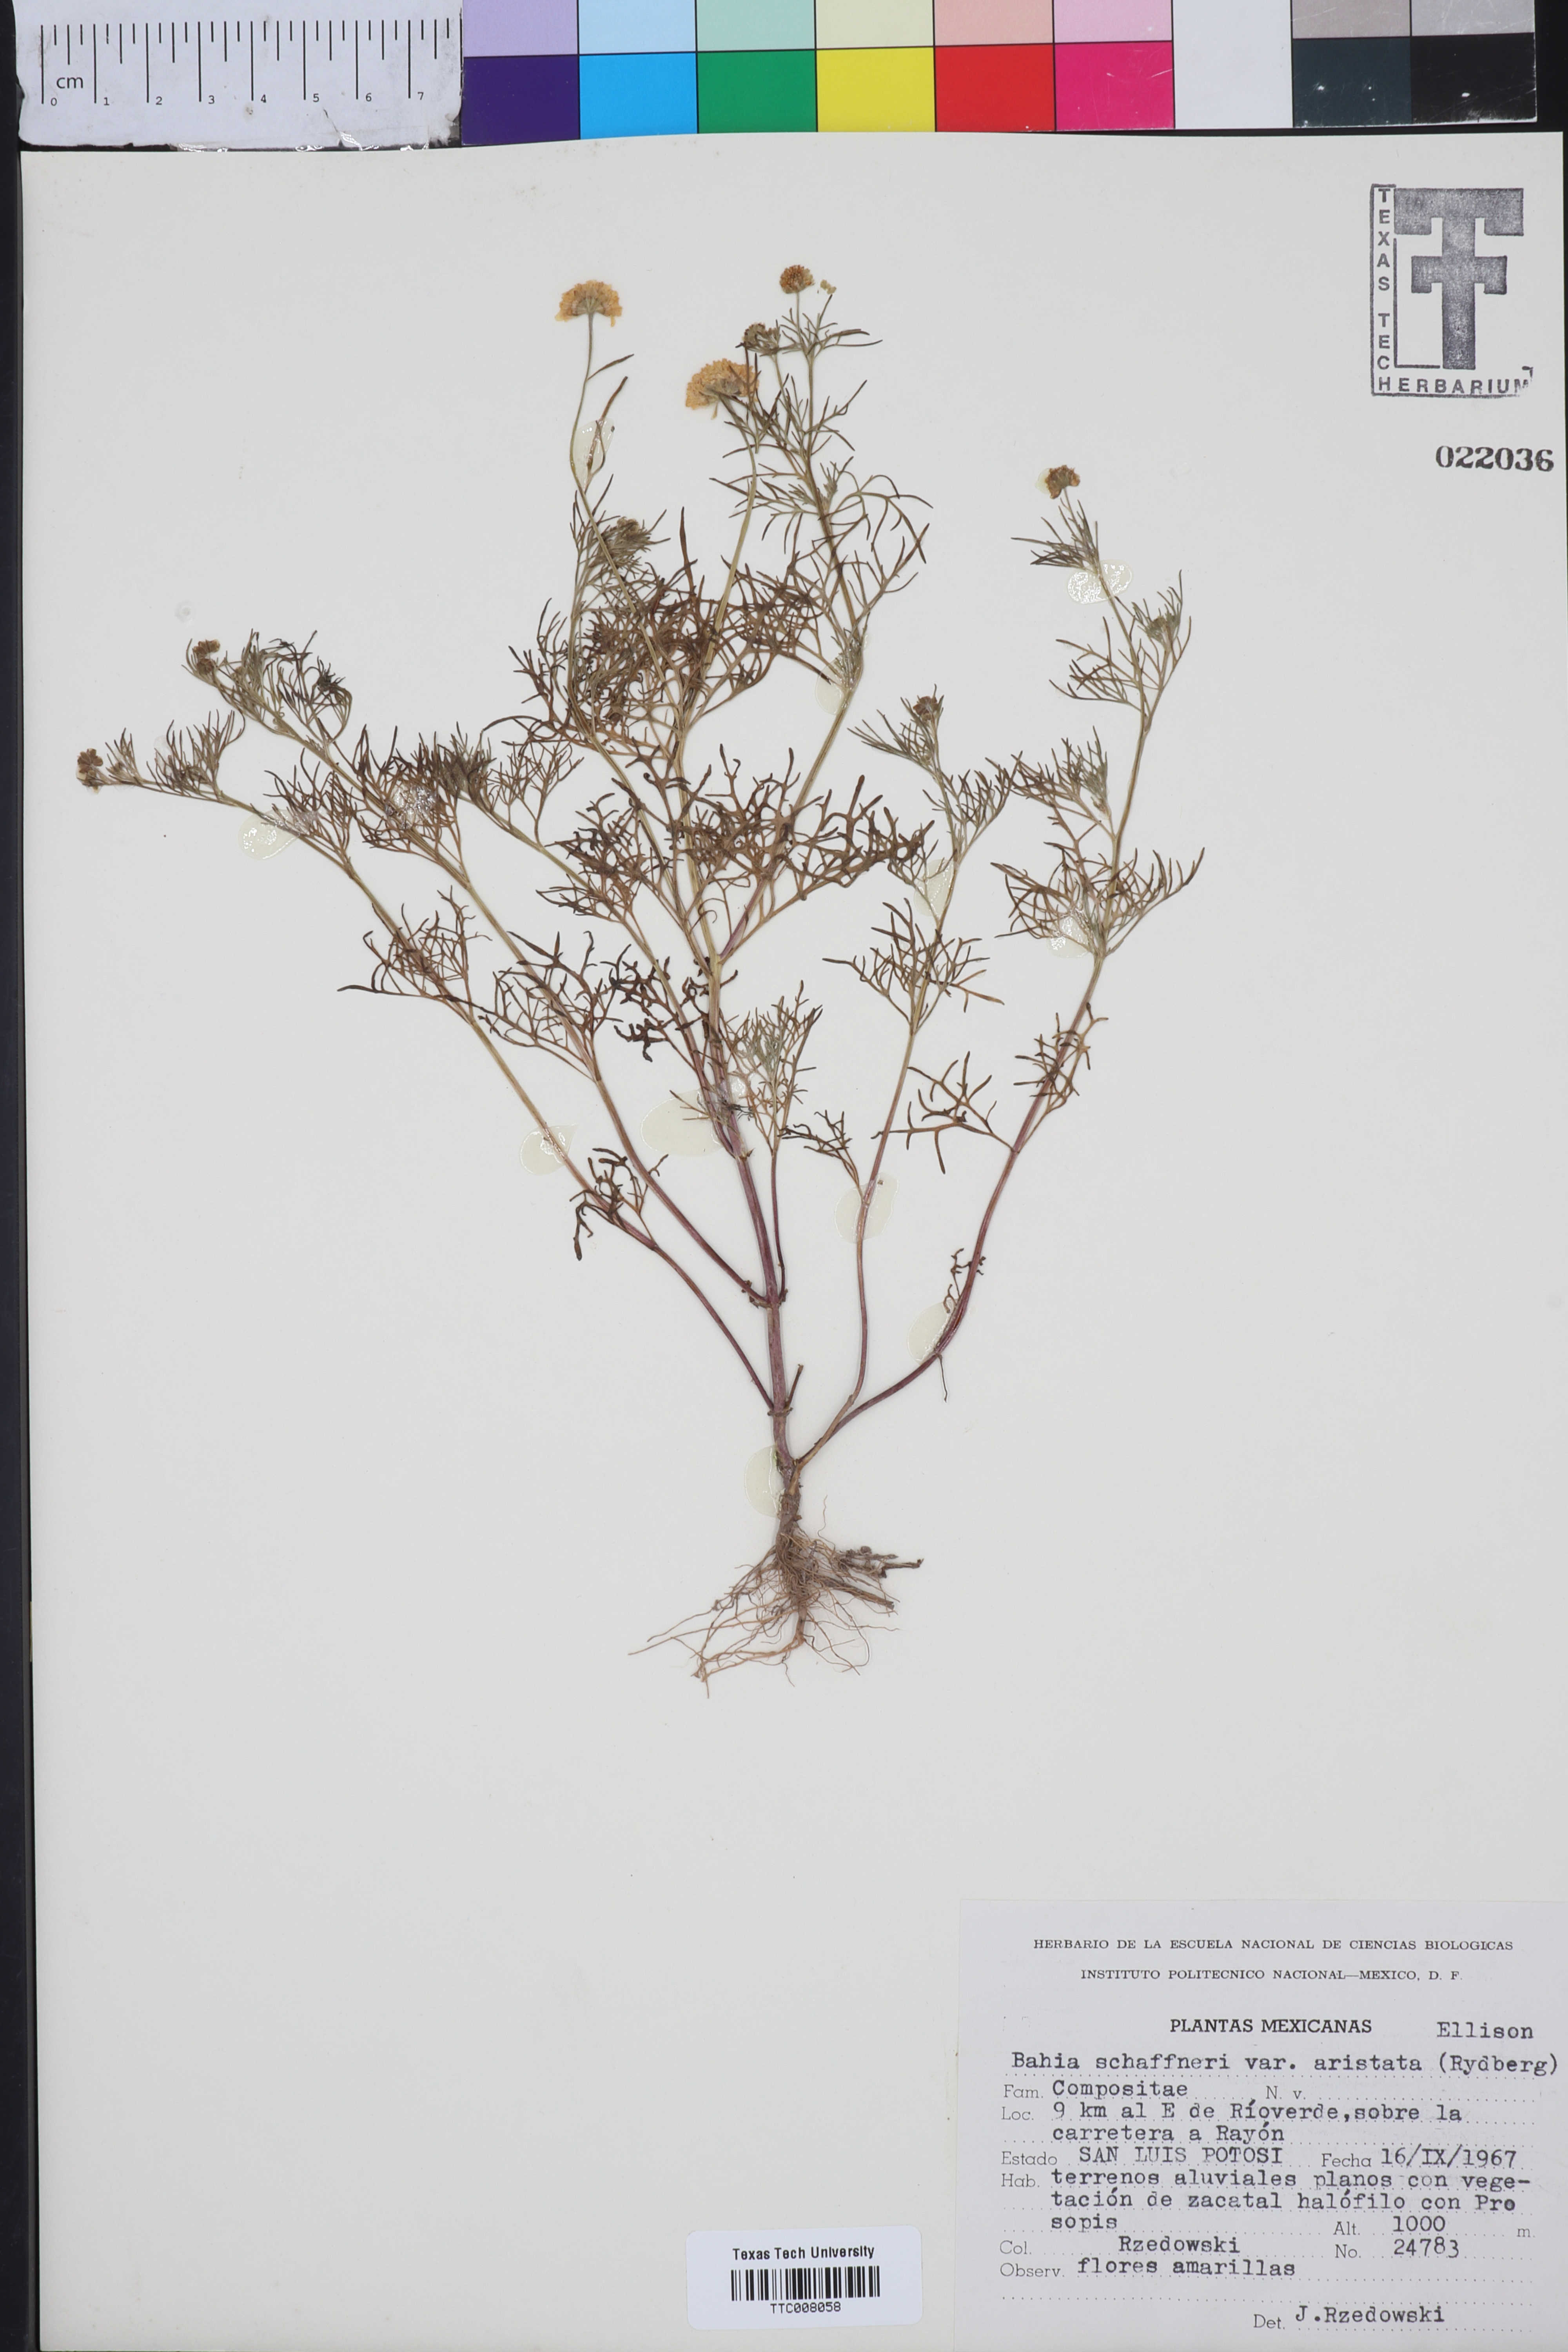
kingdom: Plantae
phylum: Tracheophyta
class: Magnoliopsida
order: Asterales
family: Asteraceae
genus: Picradeniopsis
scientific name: Picradeniopsis schaffneri
